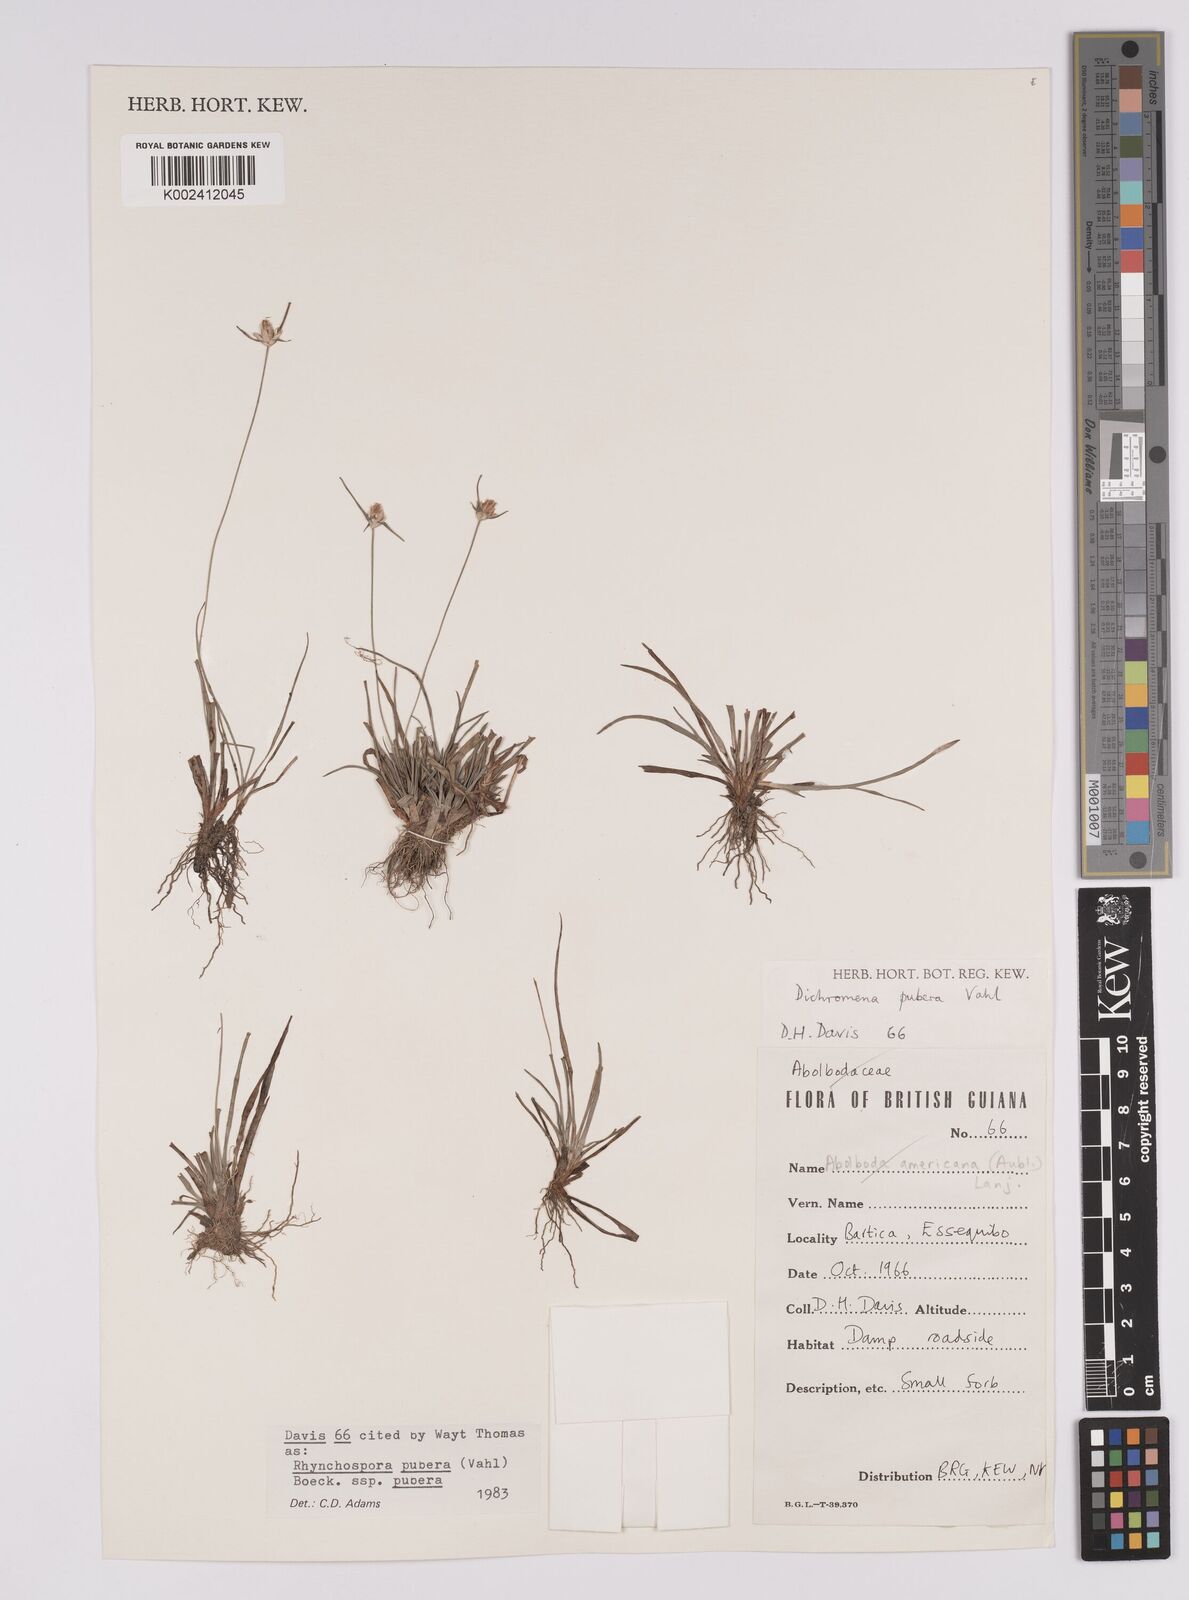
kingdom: Plantae
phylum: Tracheophyta
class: Liliopsida
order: Poales
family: Cyperaceae
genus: Rhynchospora
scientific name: Rhynchospora pubera
